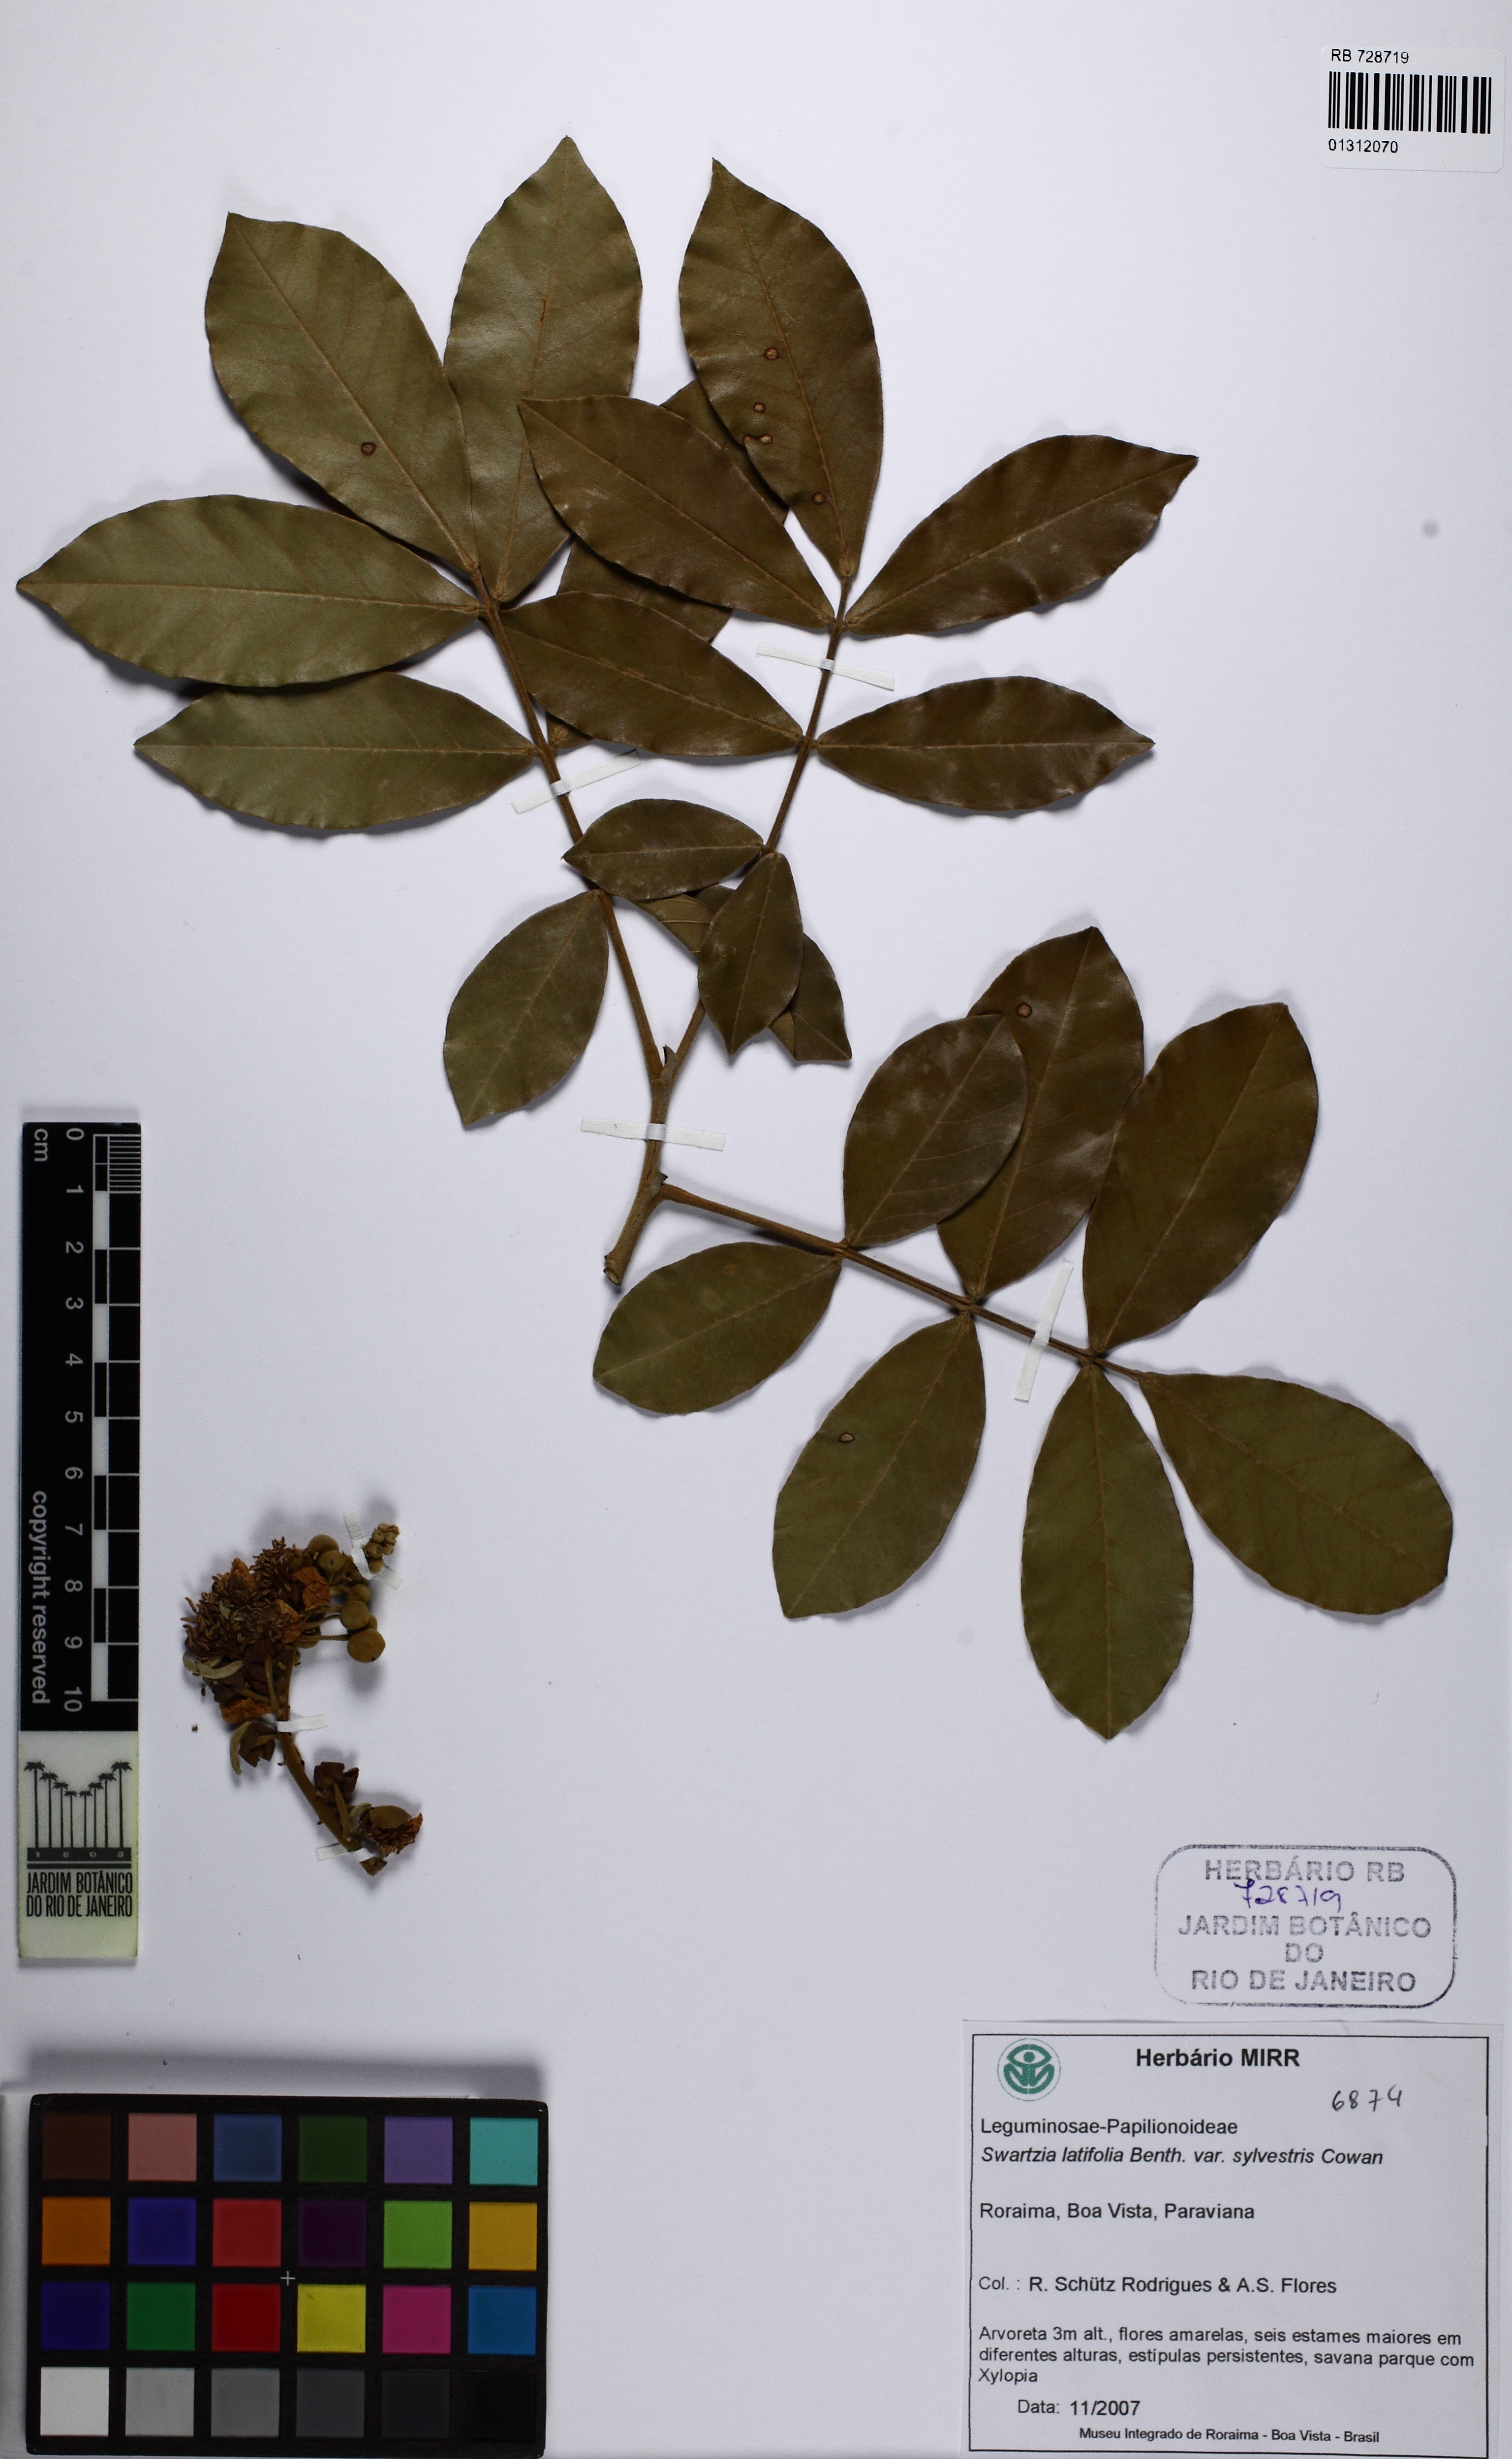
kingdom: Plantae
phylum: Tracheophyta
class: Magnoliopsida
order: Fabales
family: Fabaceae
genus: Swartzia
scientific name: Swartzia latifolia
